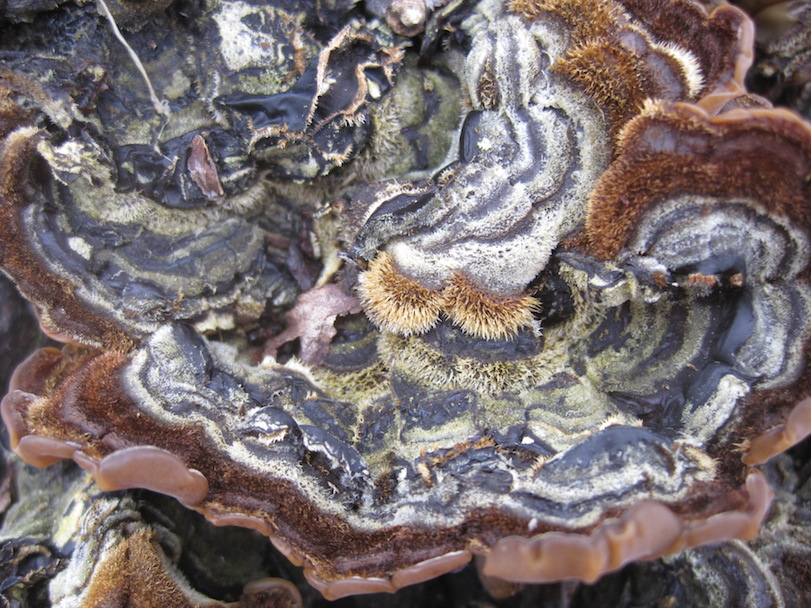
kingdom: Fungi
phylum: Basidiomycota
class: Agaricomycetes
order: Auriculariales
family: Auriculariaceae
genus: Auricularia
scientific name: Auricularia mesenterica
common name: håret judasøre
